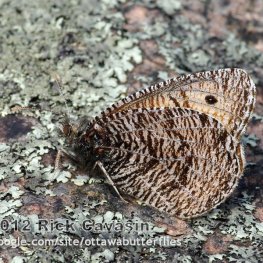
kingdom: Animalia
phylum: Arthropoda
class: Insecta
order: Lepidoptera
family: Nymphalidae
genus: Oeneis
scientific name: Oeneis chryxus
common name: Chryxus Arctic
